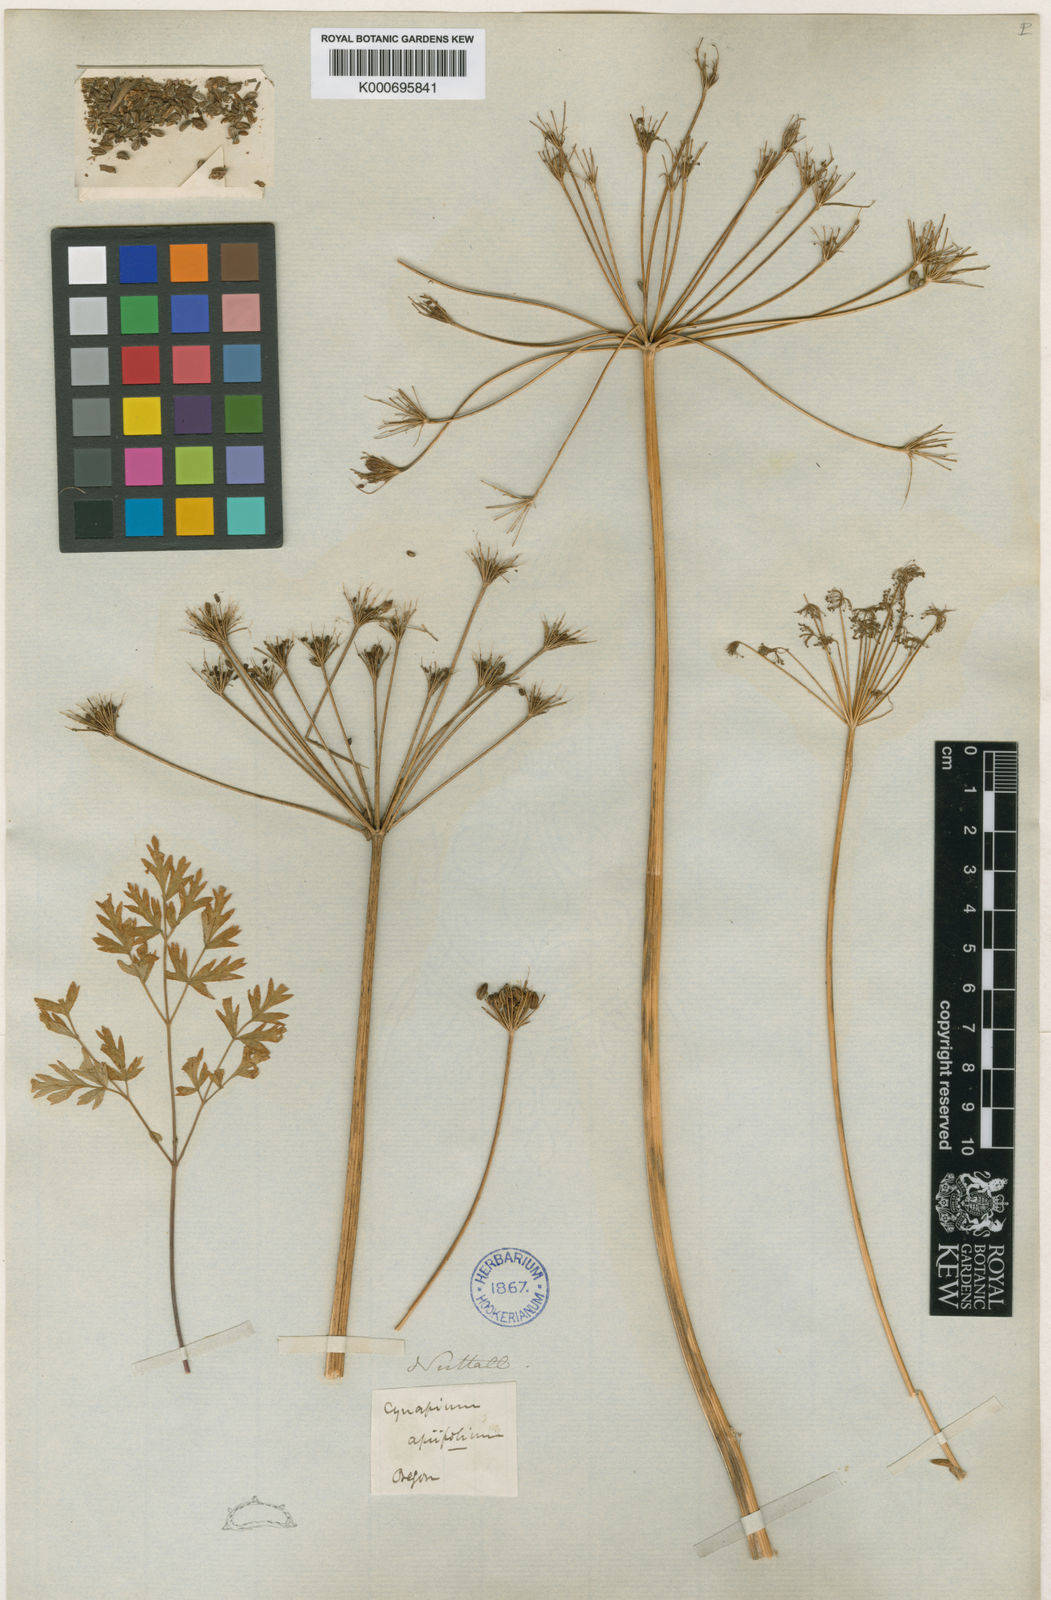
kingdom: Plantae
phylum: Tracheophyta
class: Magnoliopsida
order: Apiales
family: Apiaceae
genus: Lomatium
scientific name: Lomatium dissectum
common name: Lomatium
